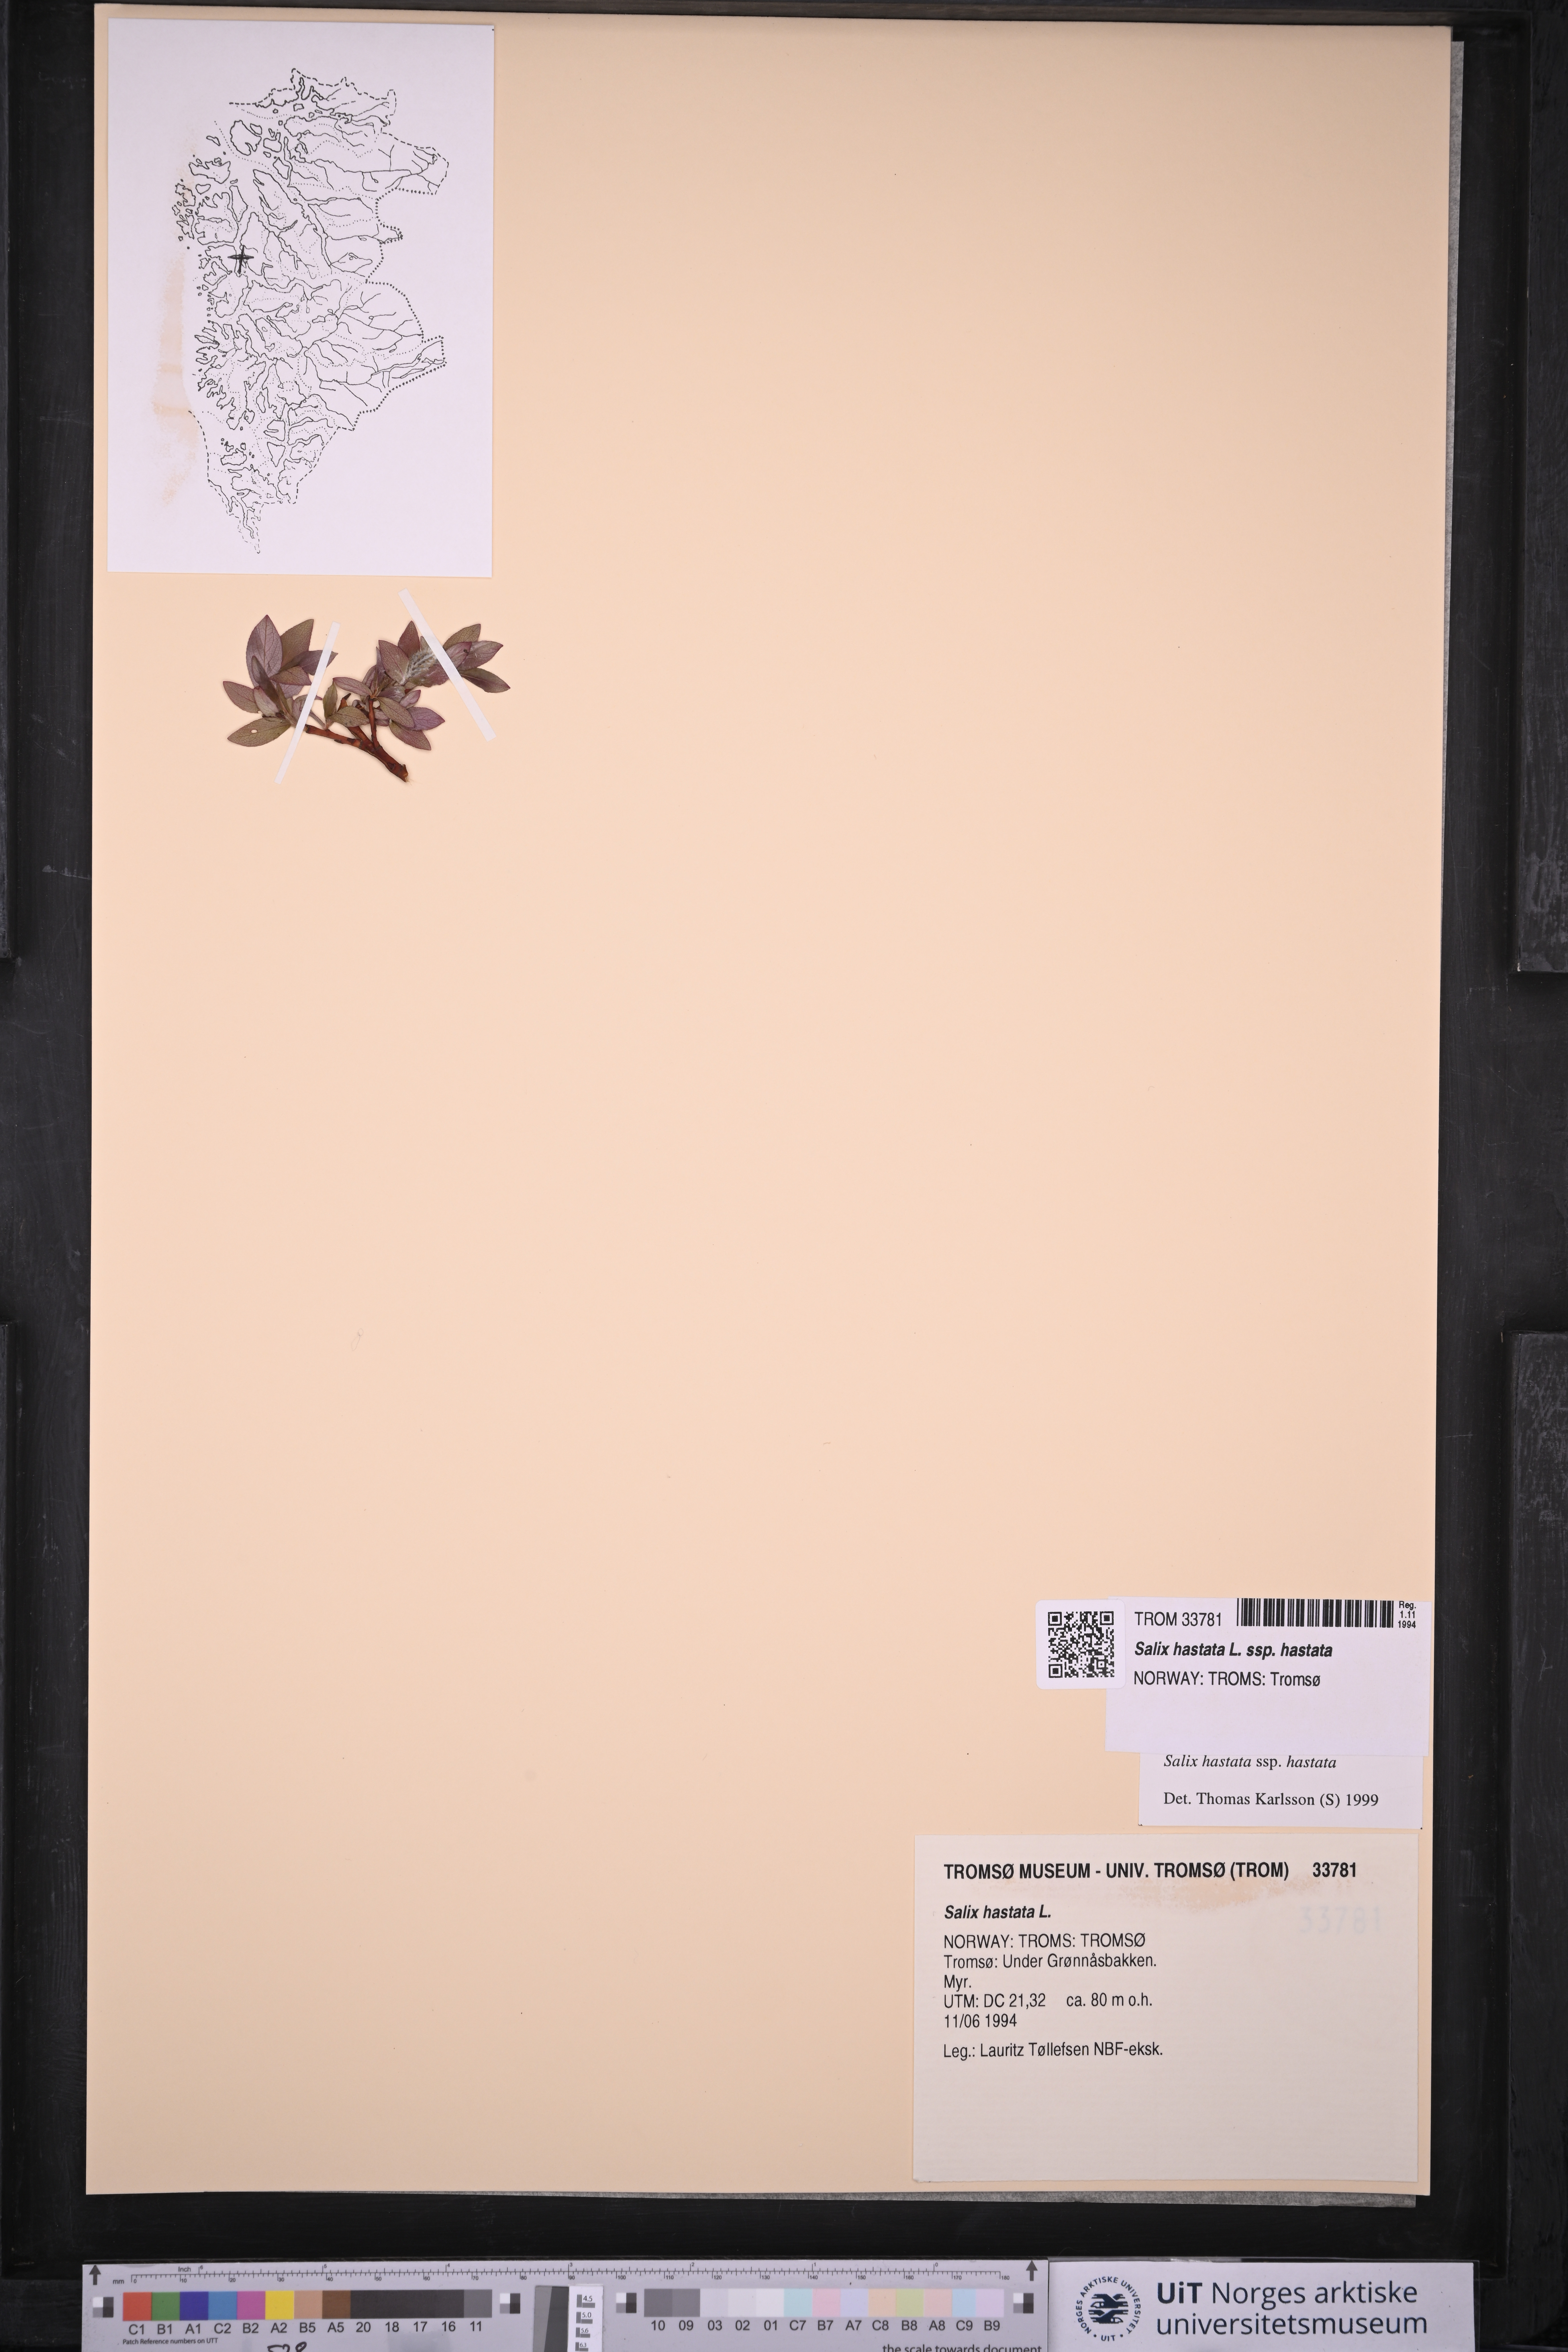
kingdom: Plantae
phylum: Tracheophyta
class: Magnoliopsida
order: Malpighiales
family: Salicaceae
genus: Salix
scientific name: Salix hastata
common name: Halberd willow
